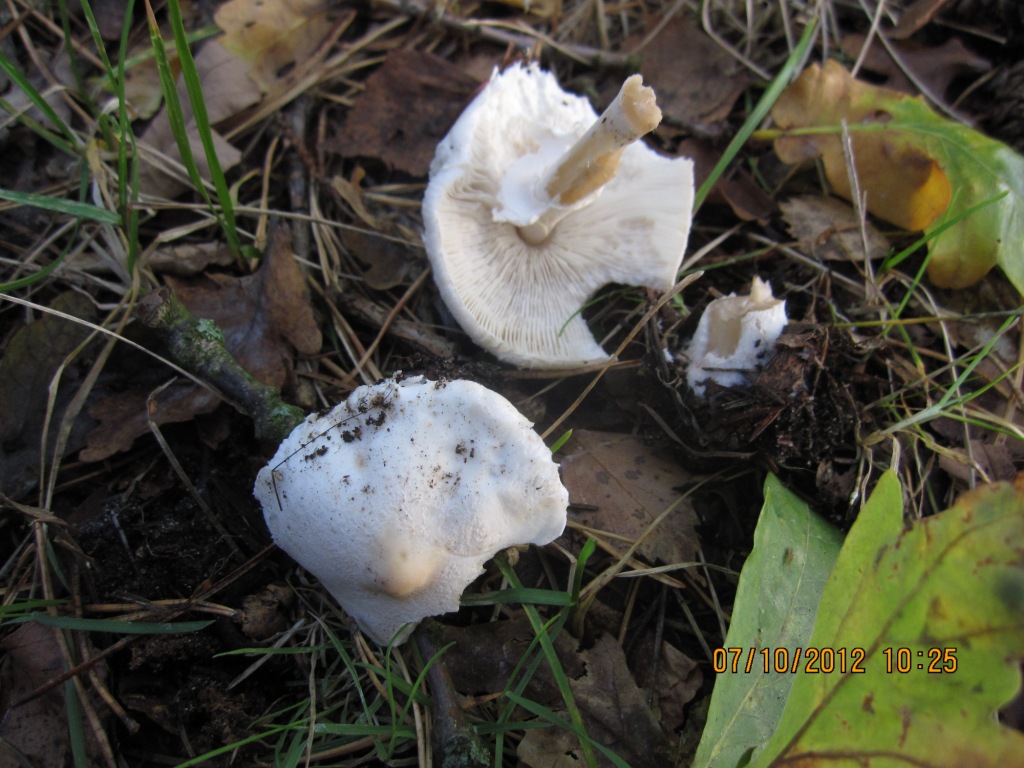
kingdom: Fungi
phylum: Basidiomycota
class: Agaricomycetes
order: Agaricales
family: Agaricaceae
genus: Macrolepiota
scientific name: Macrolepiota mastoidea
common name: puklet kæmpeparasolhat
